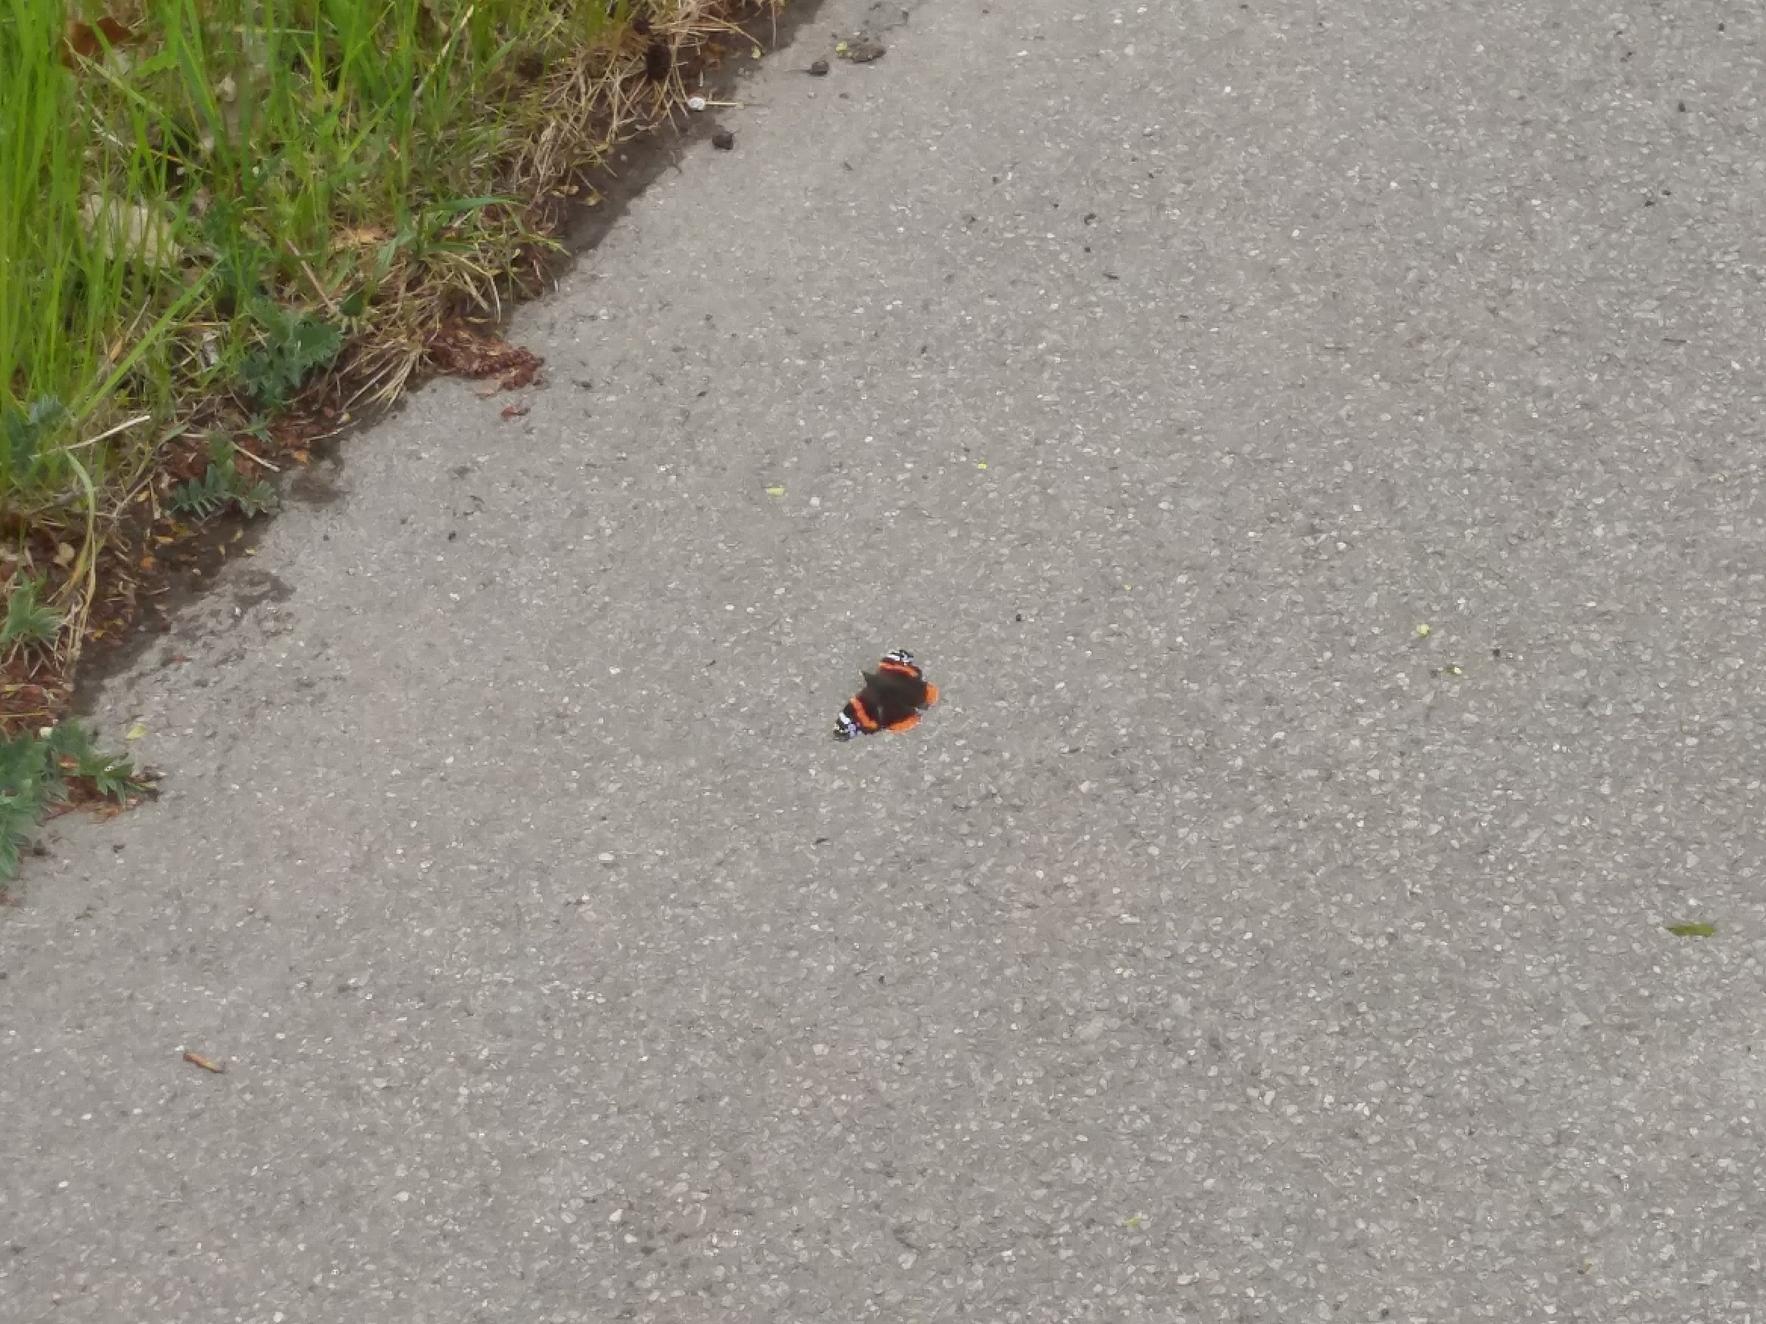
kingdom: Animalia
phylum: Arthropoda
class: Insecta
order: Lepidoptera
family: Nymphalidae
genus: Vanessa
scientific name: Vanessa atalanta
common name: Admiral
